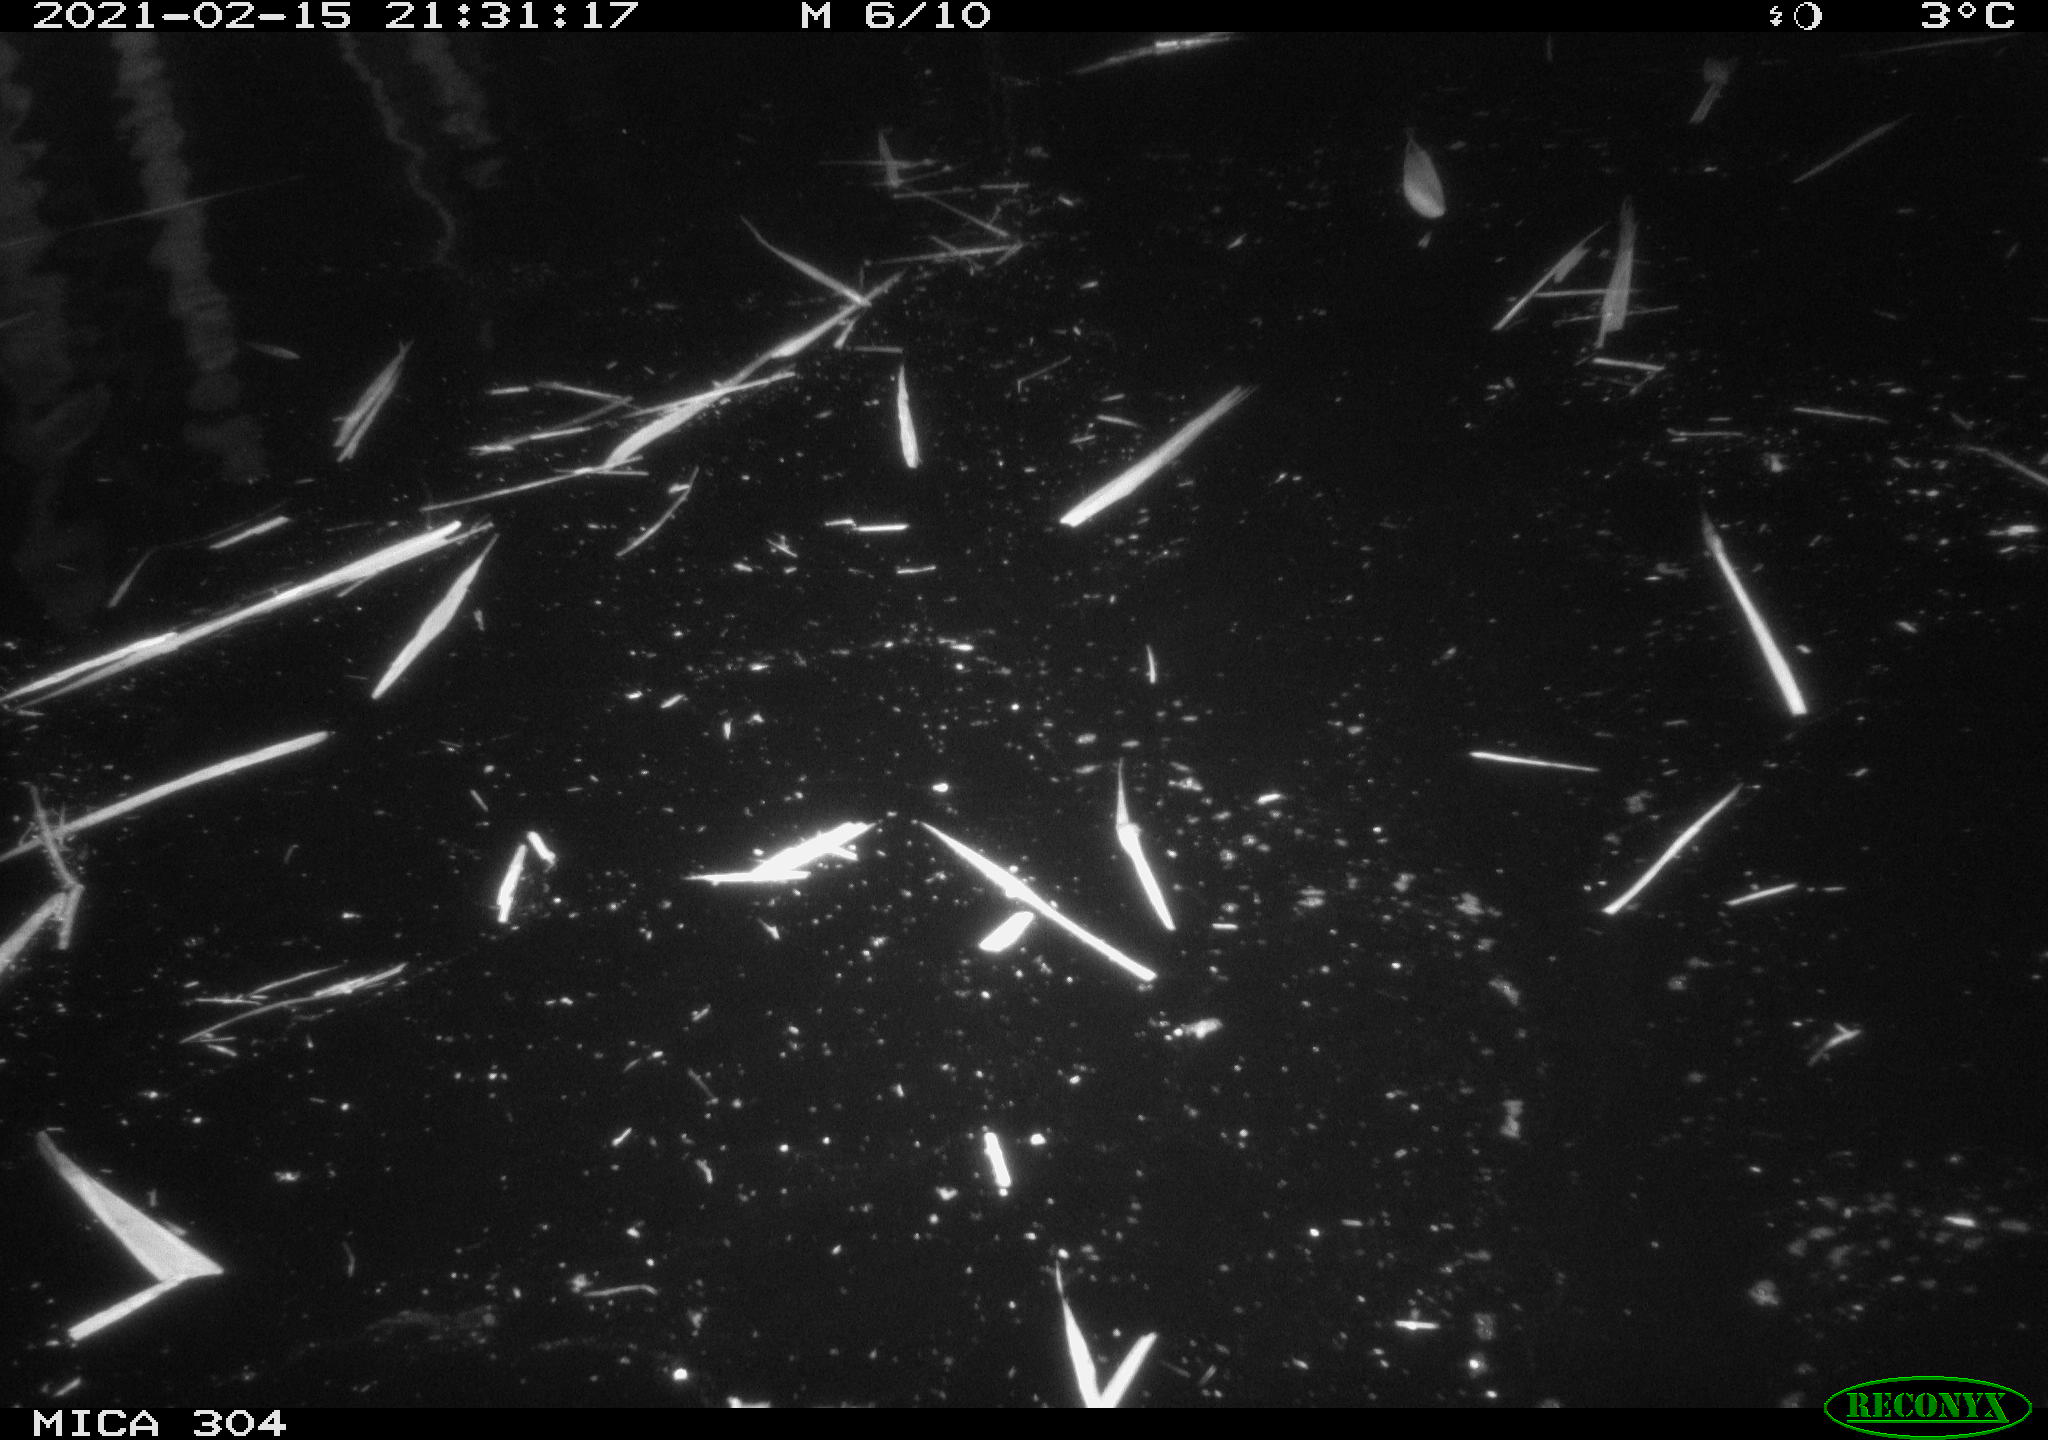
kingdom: Animalia
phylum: Chordata
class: Mammalia
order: Rodentia
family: Cricetidae
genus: Ondatra
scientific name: Ondatra zibethicus
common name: Muskrat
